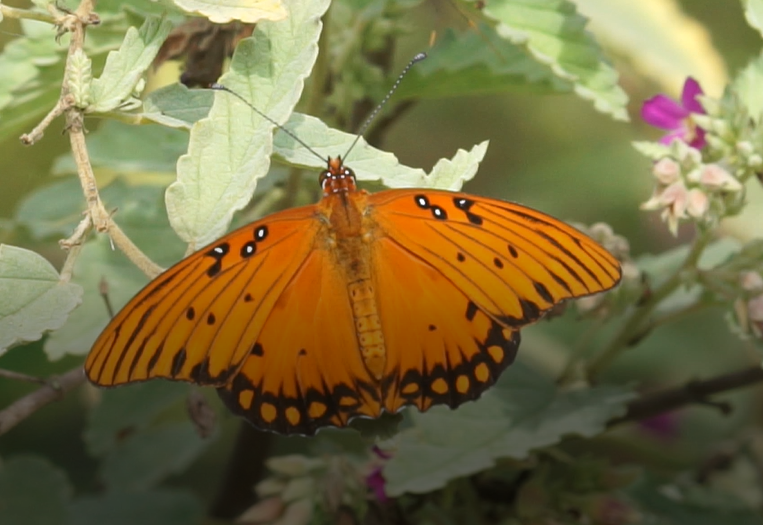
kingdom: Animalia
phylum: Arthropoda
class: Insecta
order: Lepidoptera
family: Nymphalidae
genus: Dione
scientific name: Dione vanillae
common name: Gulf Fritillary
